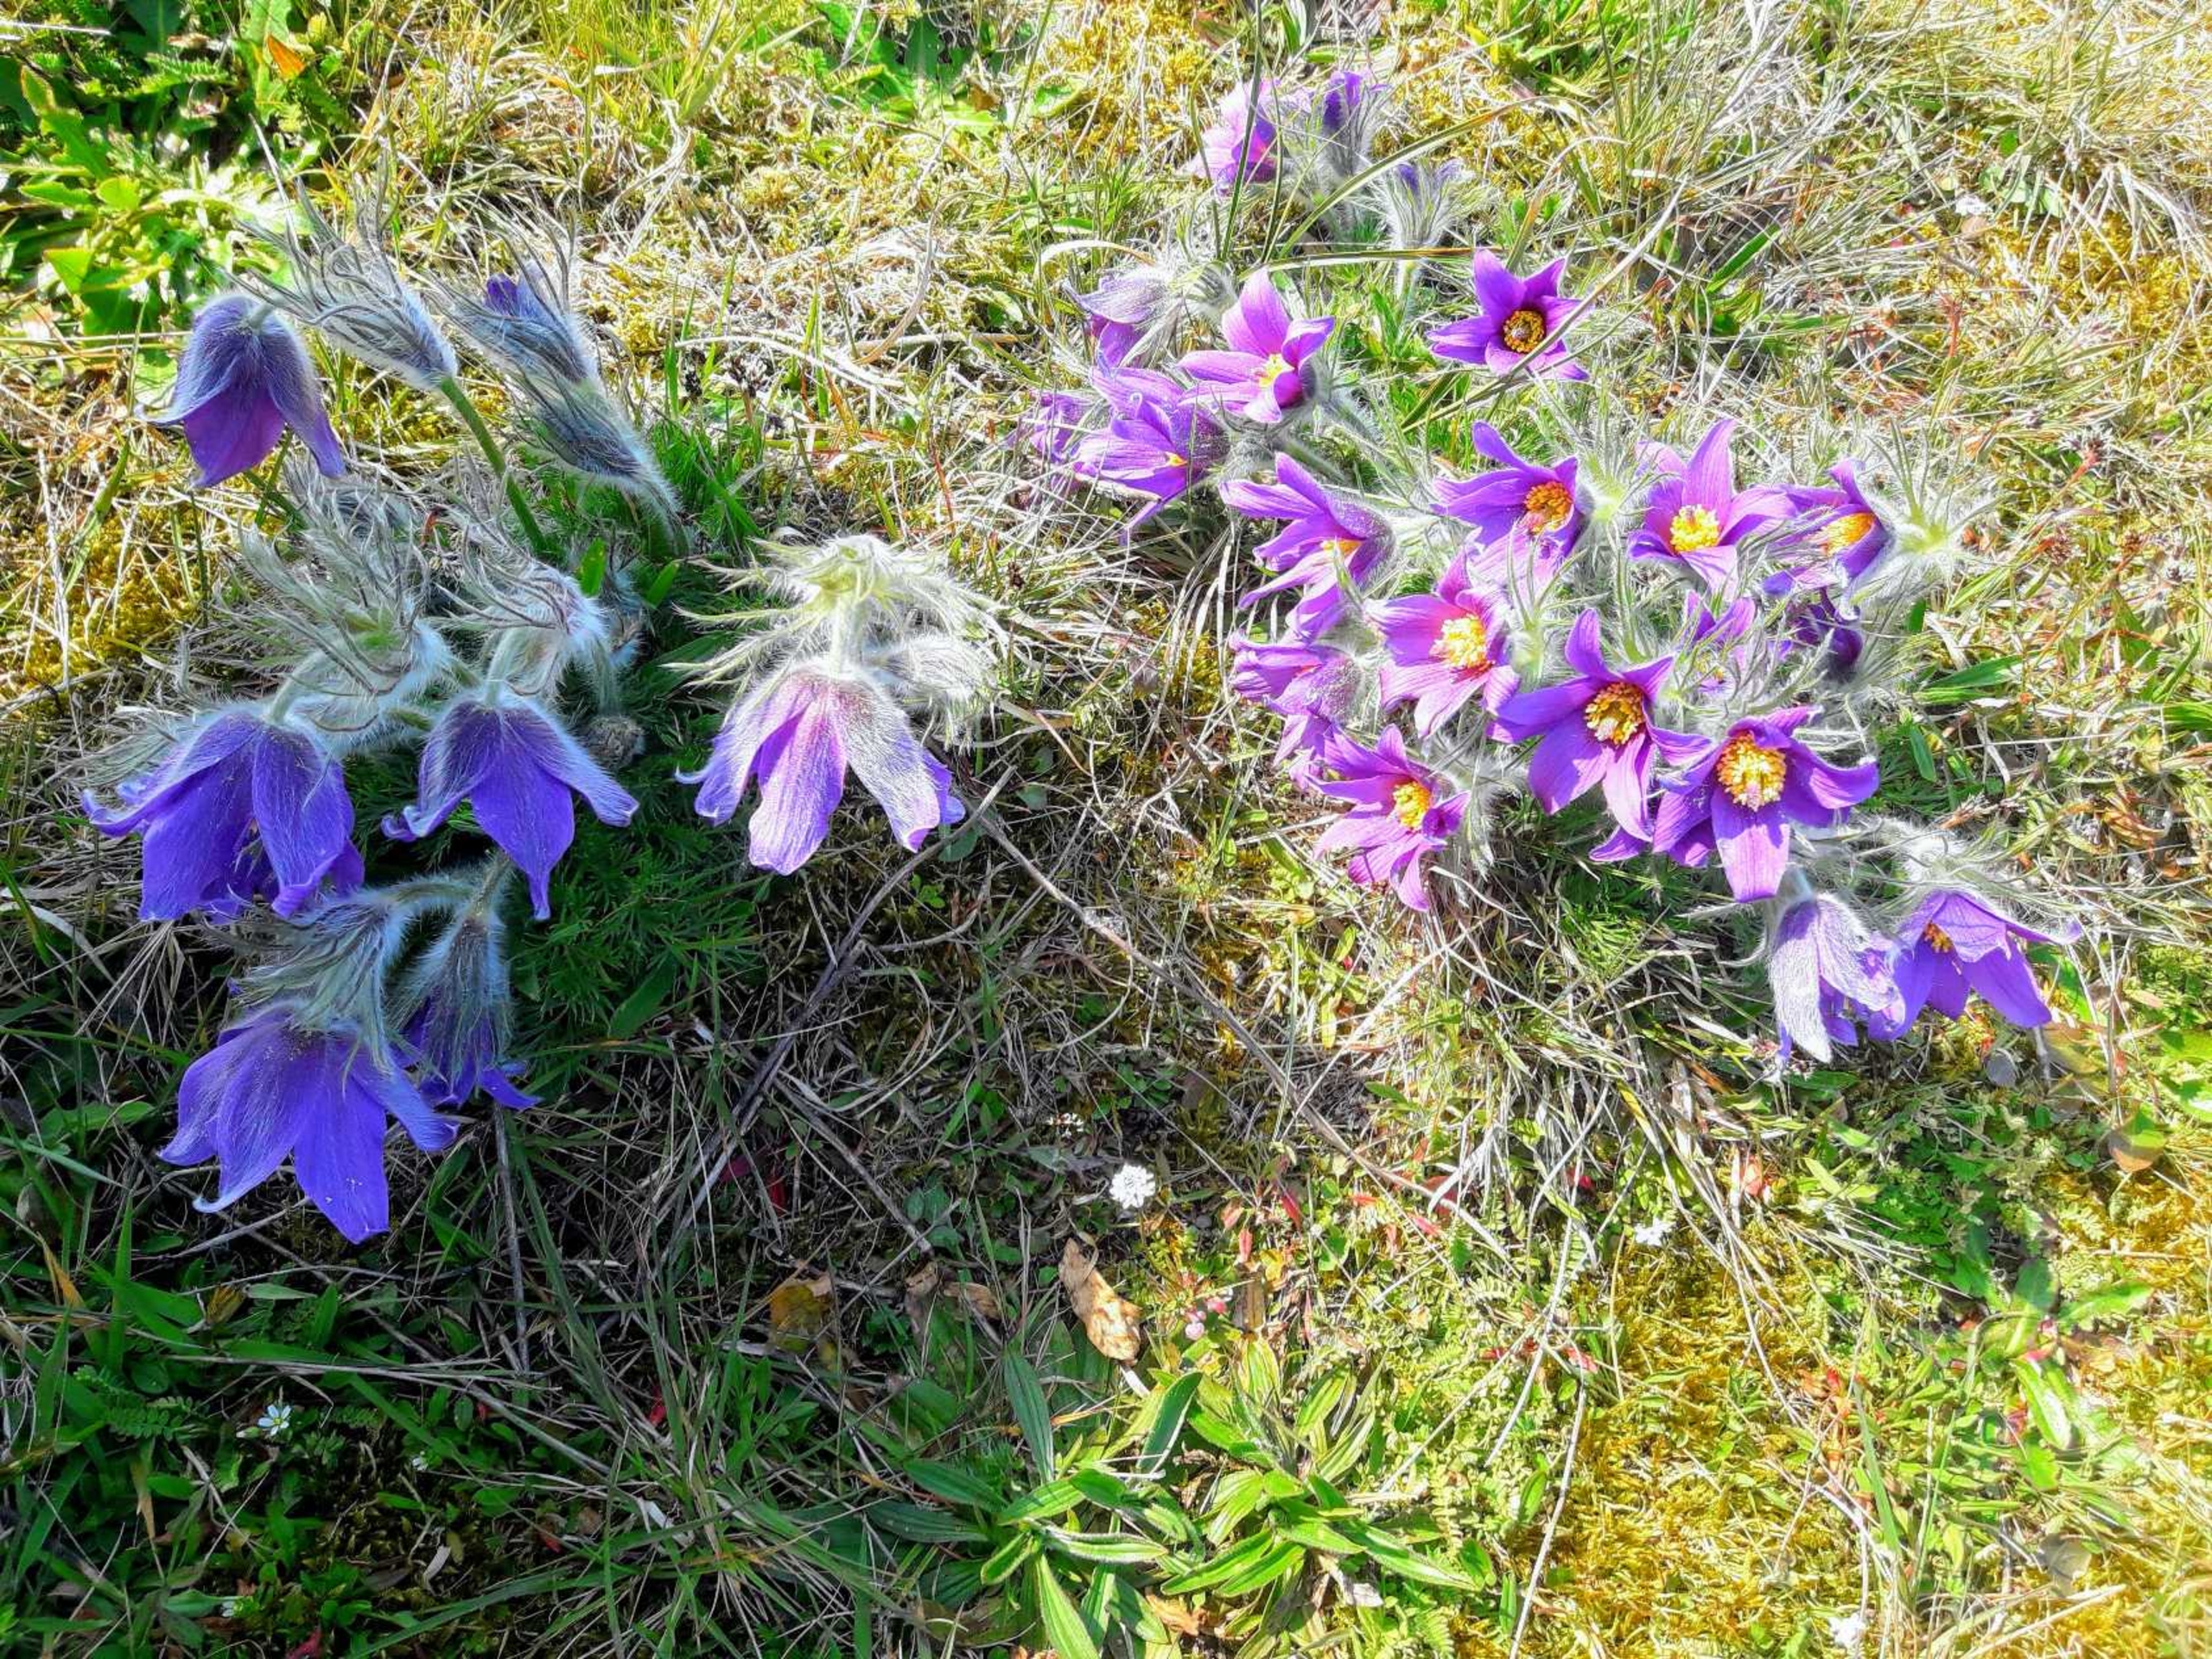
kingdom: Plantae
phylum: Tracheophyta
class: Magnoliopsida
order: Ranunculales
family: Ranunculaceae
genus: Pulsatilla
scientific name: Pulsatilla vulgaris
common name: Opret kobjælde
